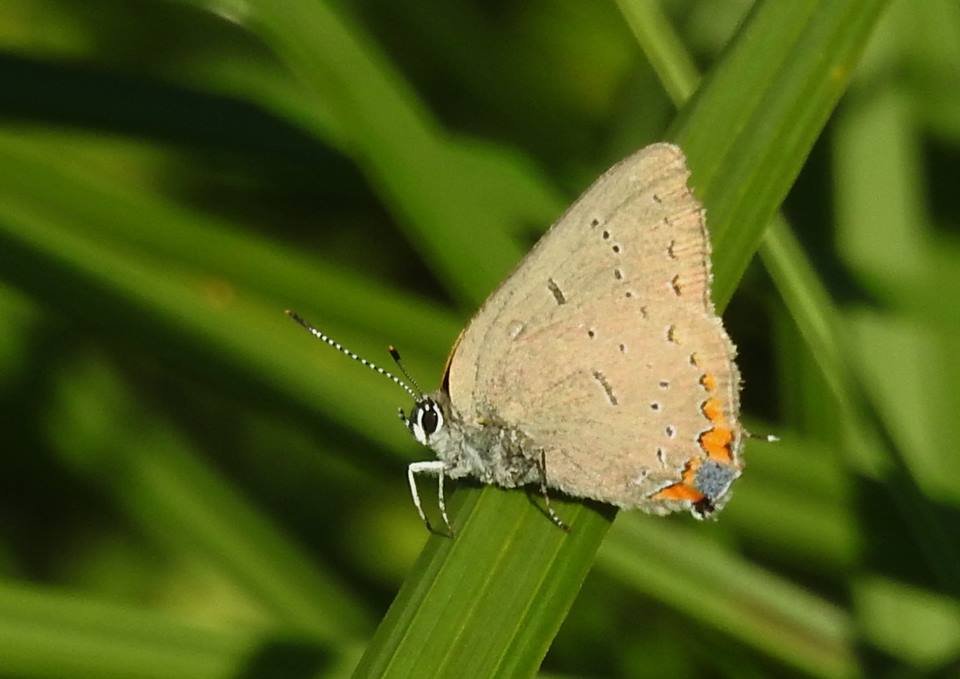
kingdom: Animalia
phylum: Arthropoda
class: Insecta
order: Lepidoptera
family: Lycaenidae
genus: Strymon
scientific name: Strymon acadica
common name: Acadian Hairstreak
